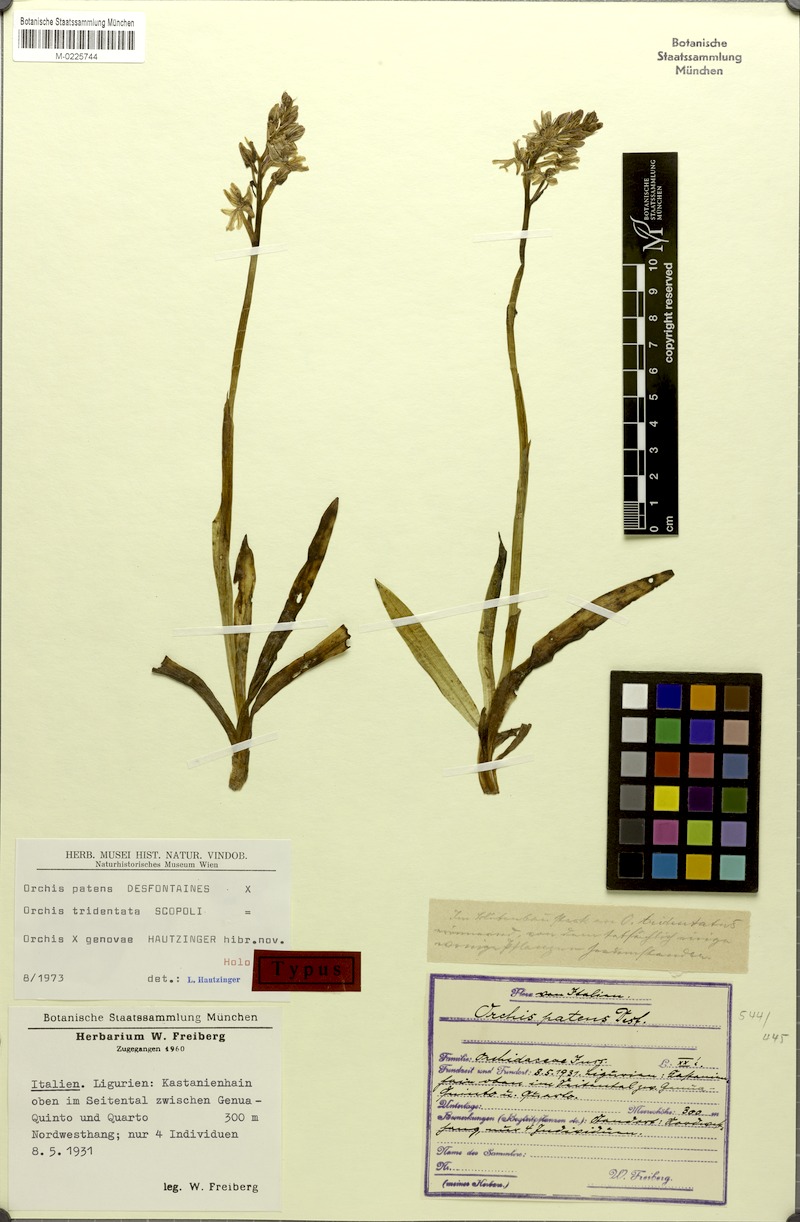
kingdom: Plantae
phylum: Tracheophyta
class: Liliopsida
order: Asparagales
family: Orchidaceae
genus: Orchinea
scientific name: Orchinea genovae
